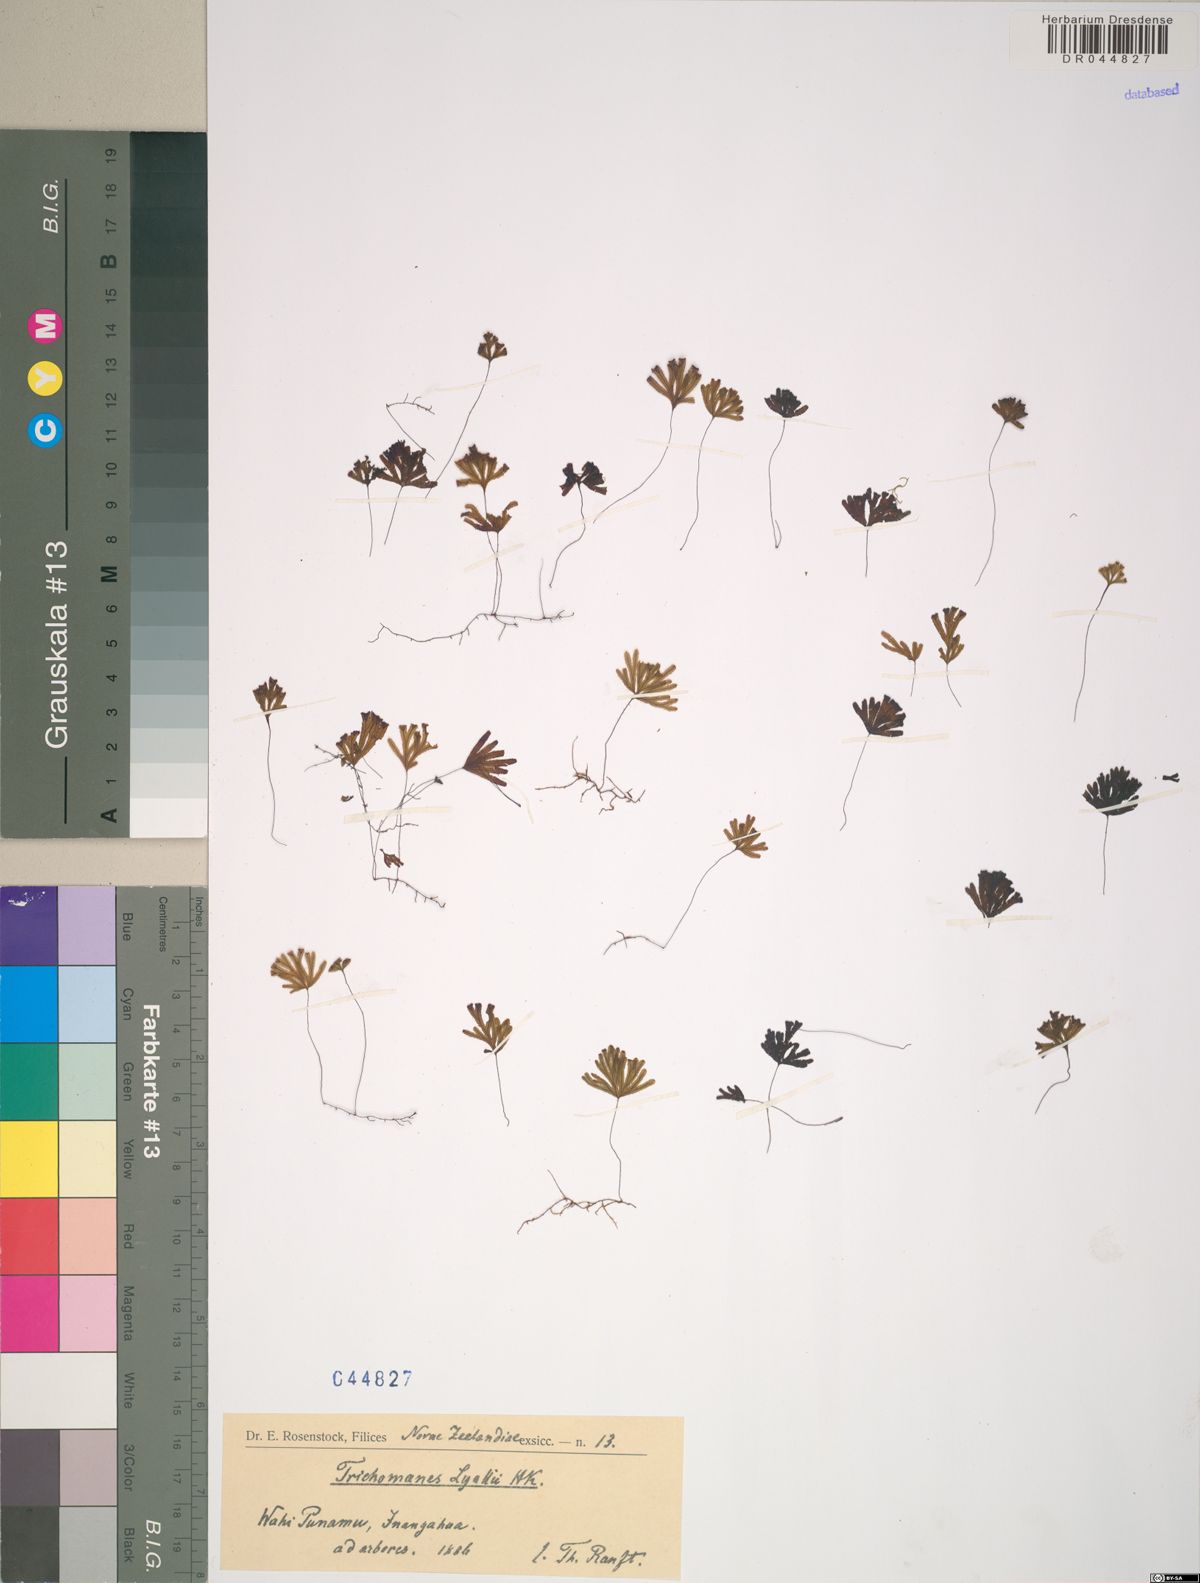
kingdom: Plantae
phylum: Tracheophyta
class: Polypodiopsida
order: Hymenophyllales
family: Hymenophyllaceae
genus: Hymenophyllum
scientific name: Hymenophyllum lyallii
